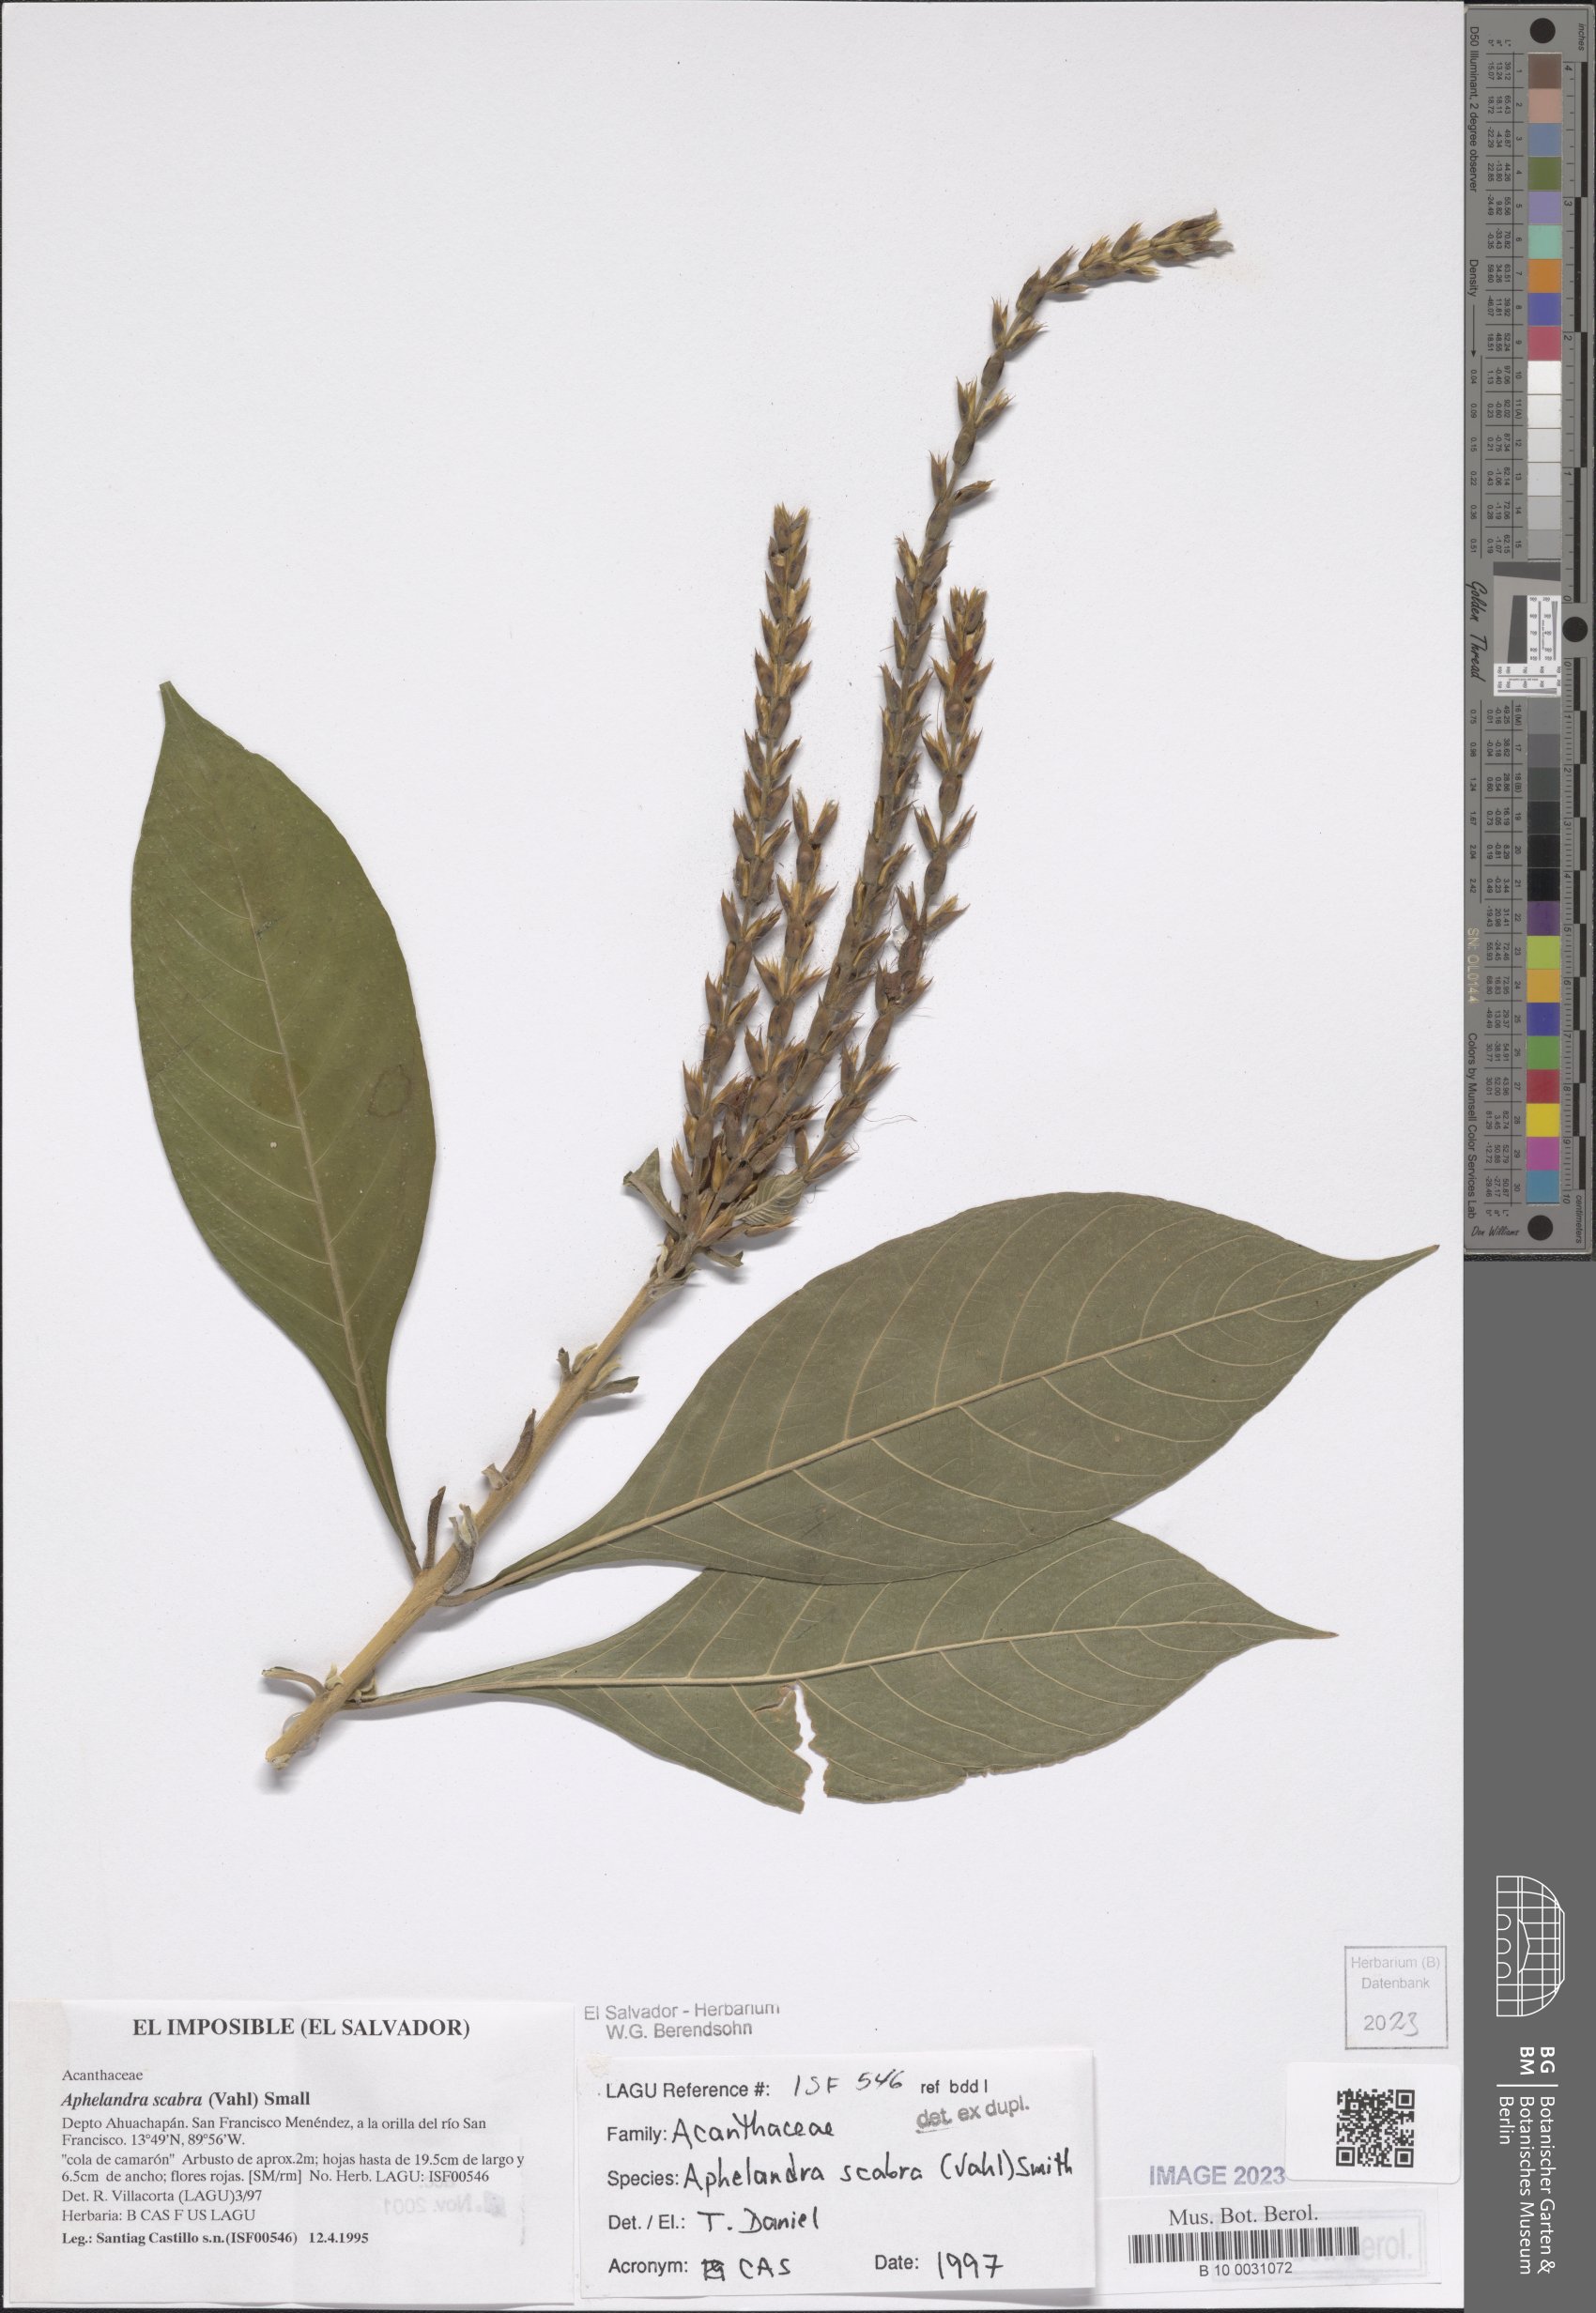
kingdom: Plantae
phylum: Tracheophyta
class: Magnoliopsida
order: Lamiales
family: Acanthaceae
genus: Aphelandra
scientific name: Aphelandra scabra
